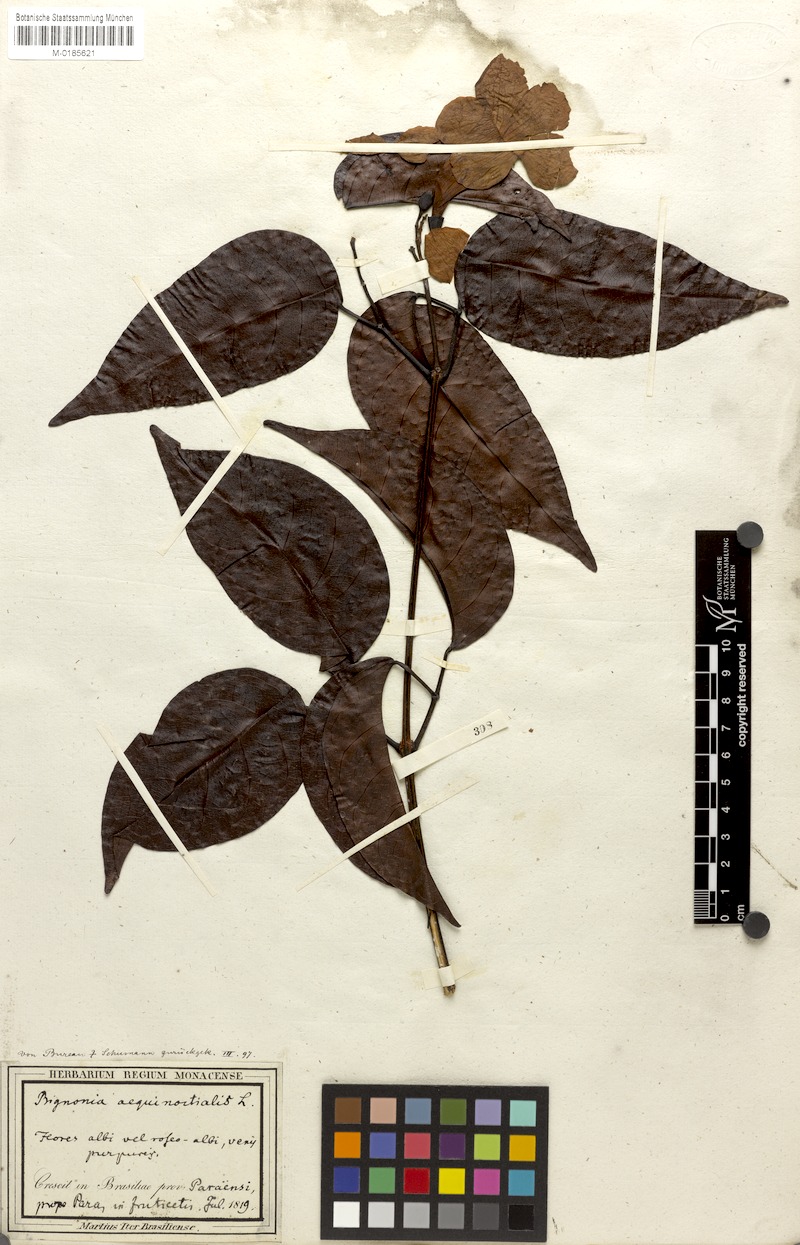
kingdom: Plantae
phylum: Tracheophyta
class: Magnoliopsida
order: Lamiales
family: Bignoniaceae
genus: Bignonia
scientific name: Bignonia aequinoctialis
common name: Garlicvine
